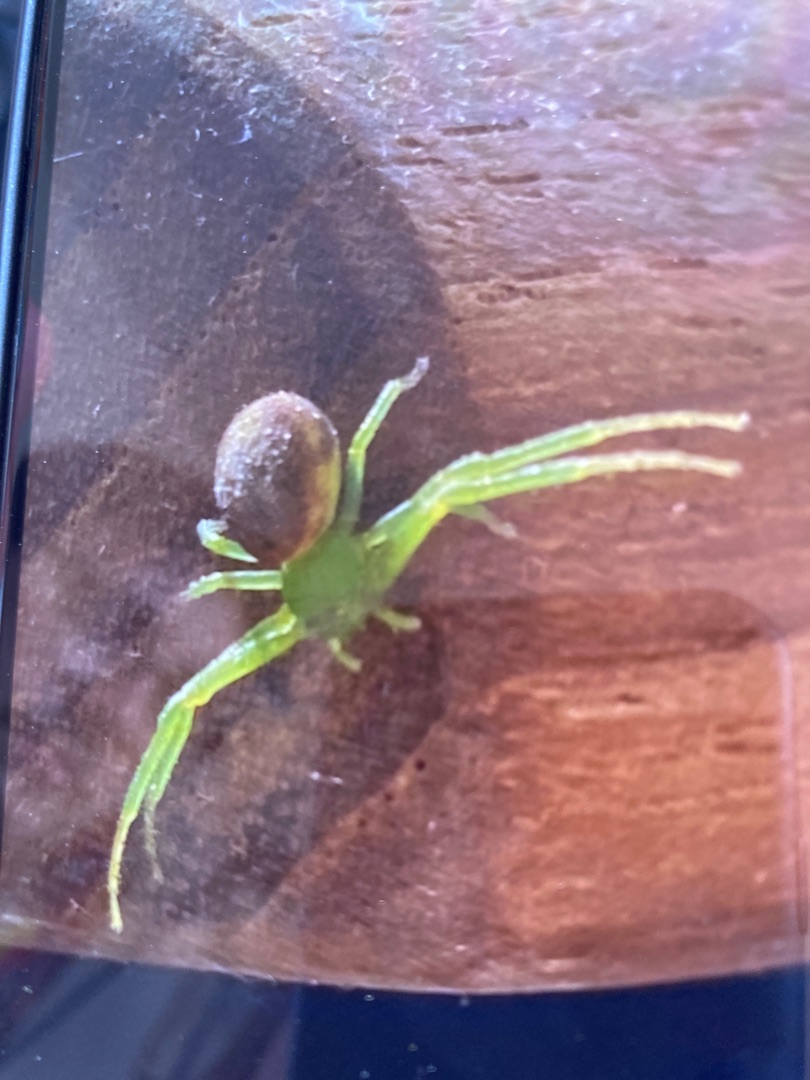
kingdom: Animalia
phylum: Arthropoda
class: Arachnida
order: Araneae
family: Thomisidae
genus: Diaea
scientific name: Diaea dorsata
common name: Grøn krabbeedderkop
